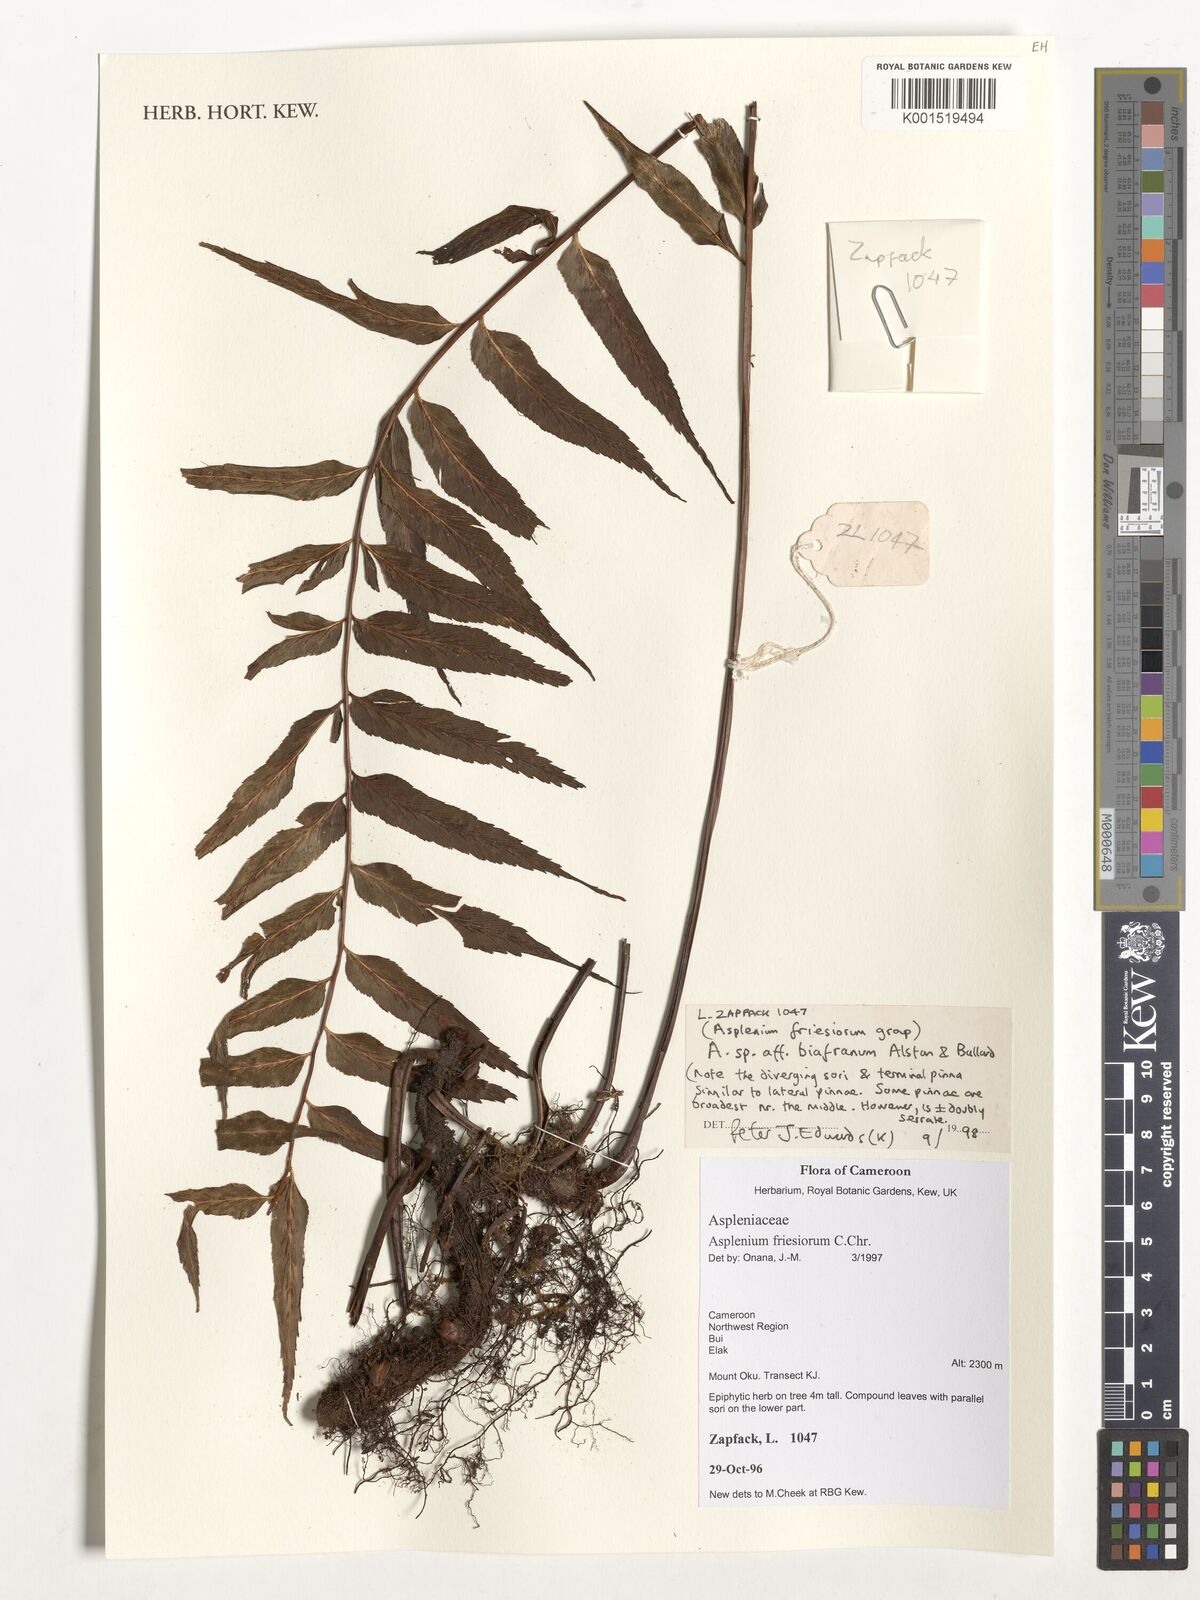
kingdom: Plantae
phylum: Tracheophyta
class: Polypodiopsida
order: Polypodiales
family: Aspleniaceae
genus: Asplenium
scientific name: Asplenium biafranum
